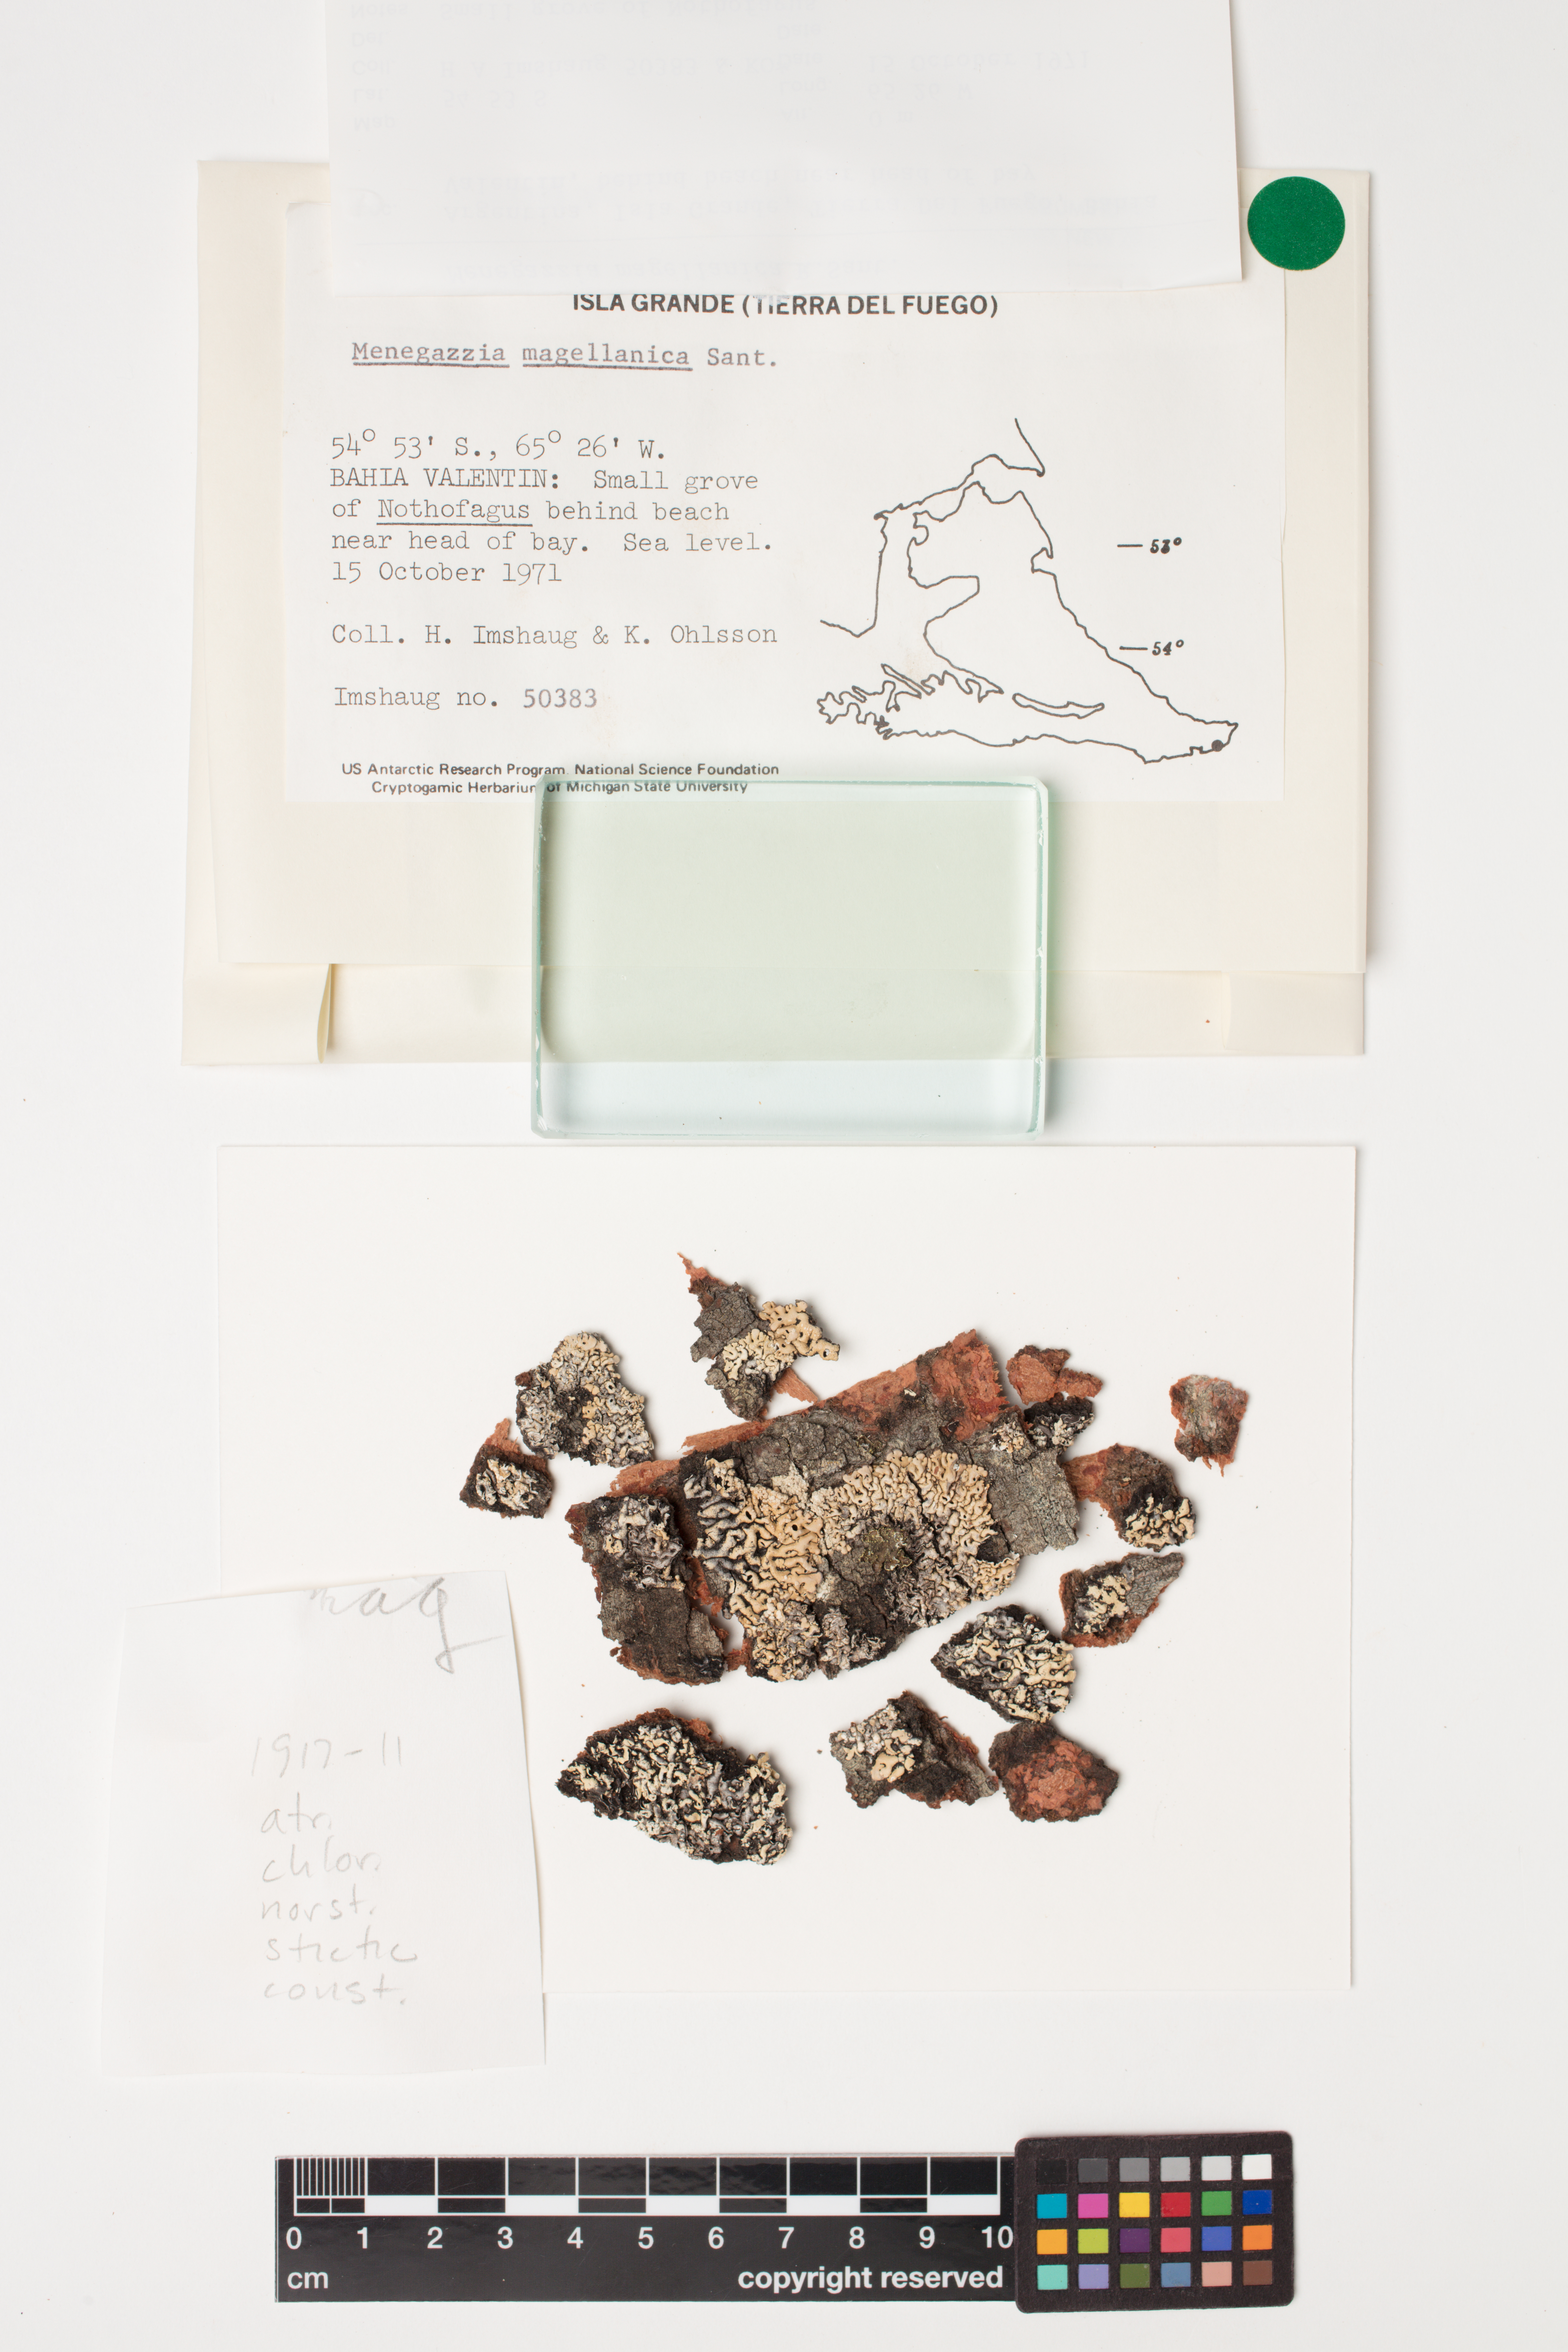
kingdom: Fungi
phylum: Ascomycota
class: Lecanoromycetes
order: Lecanorales
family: Parmeliaceae
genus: Menegazzia
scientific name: Menegazzia subpertusa
